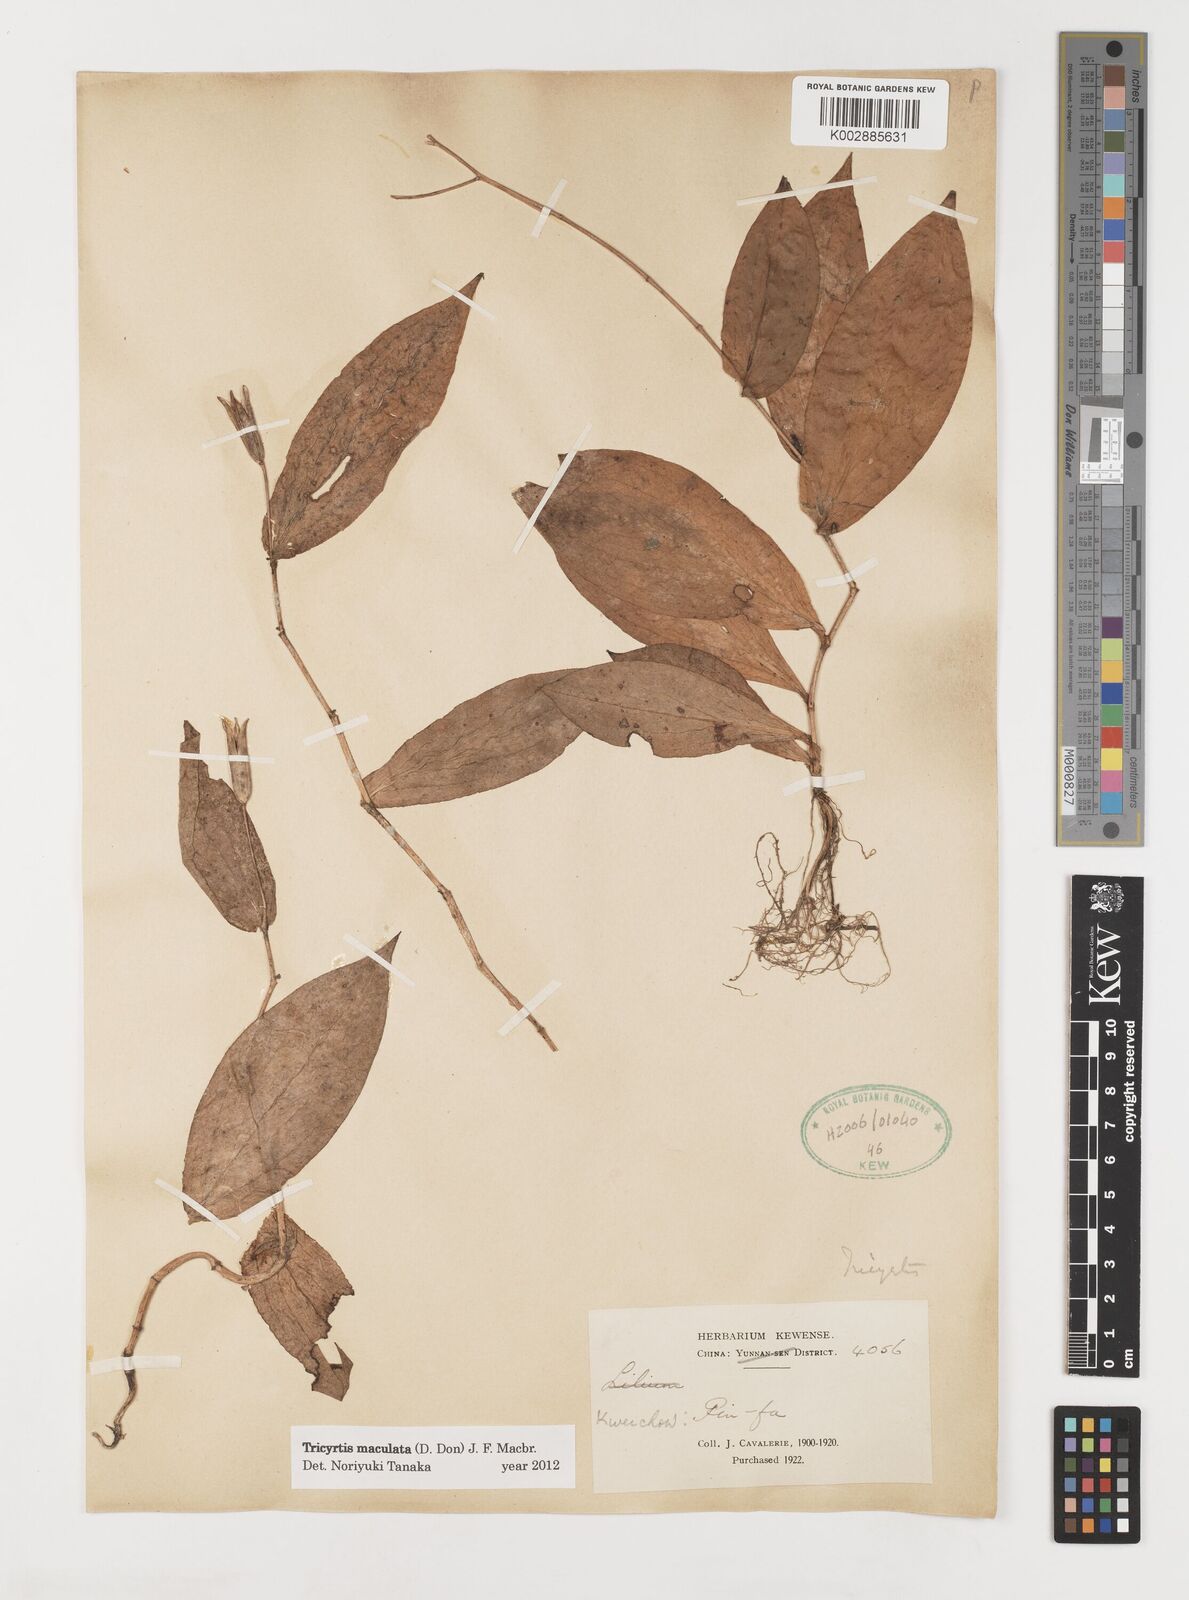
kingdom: Plantae
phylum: Tracheophyta
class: Liliopsida
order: Liliales
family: Liliaceae
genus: Tricyrtis
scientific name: Tricyrtis maculata
